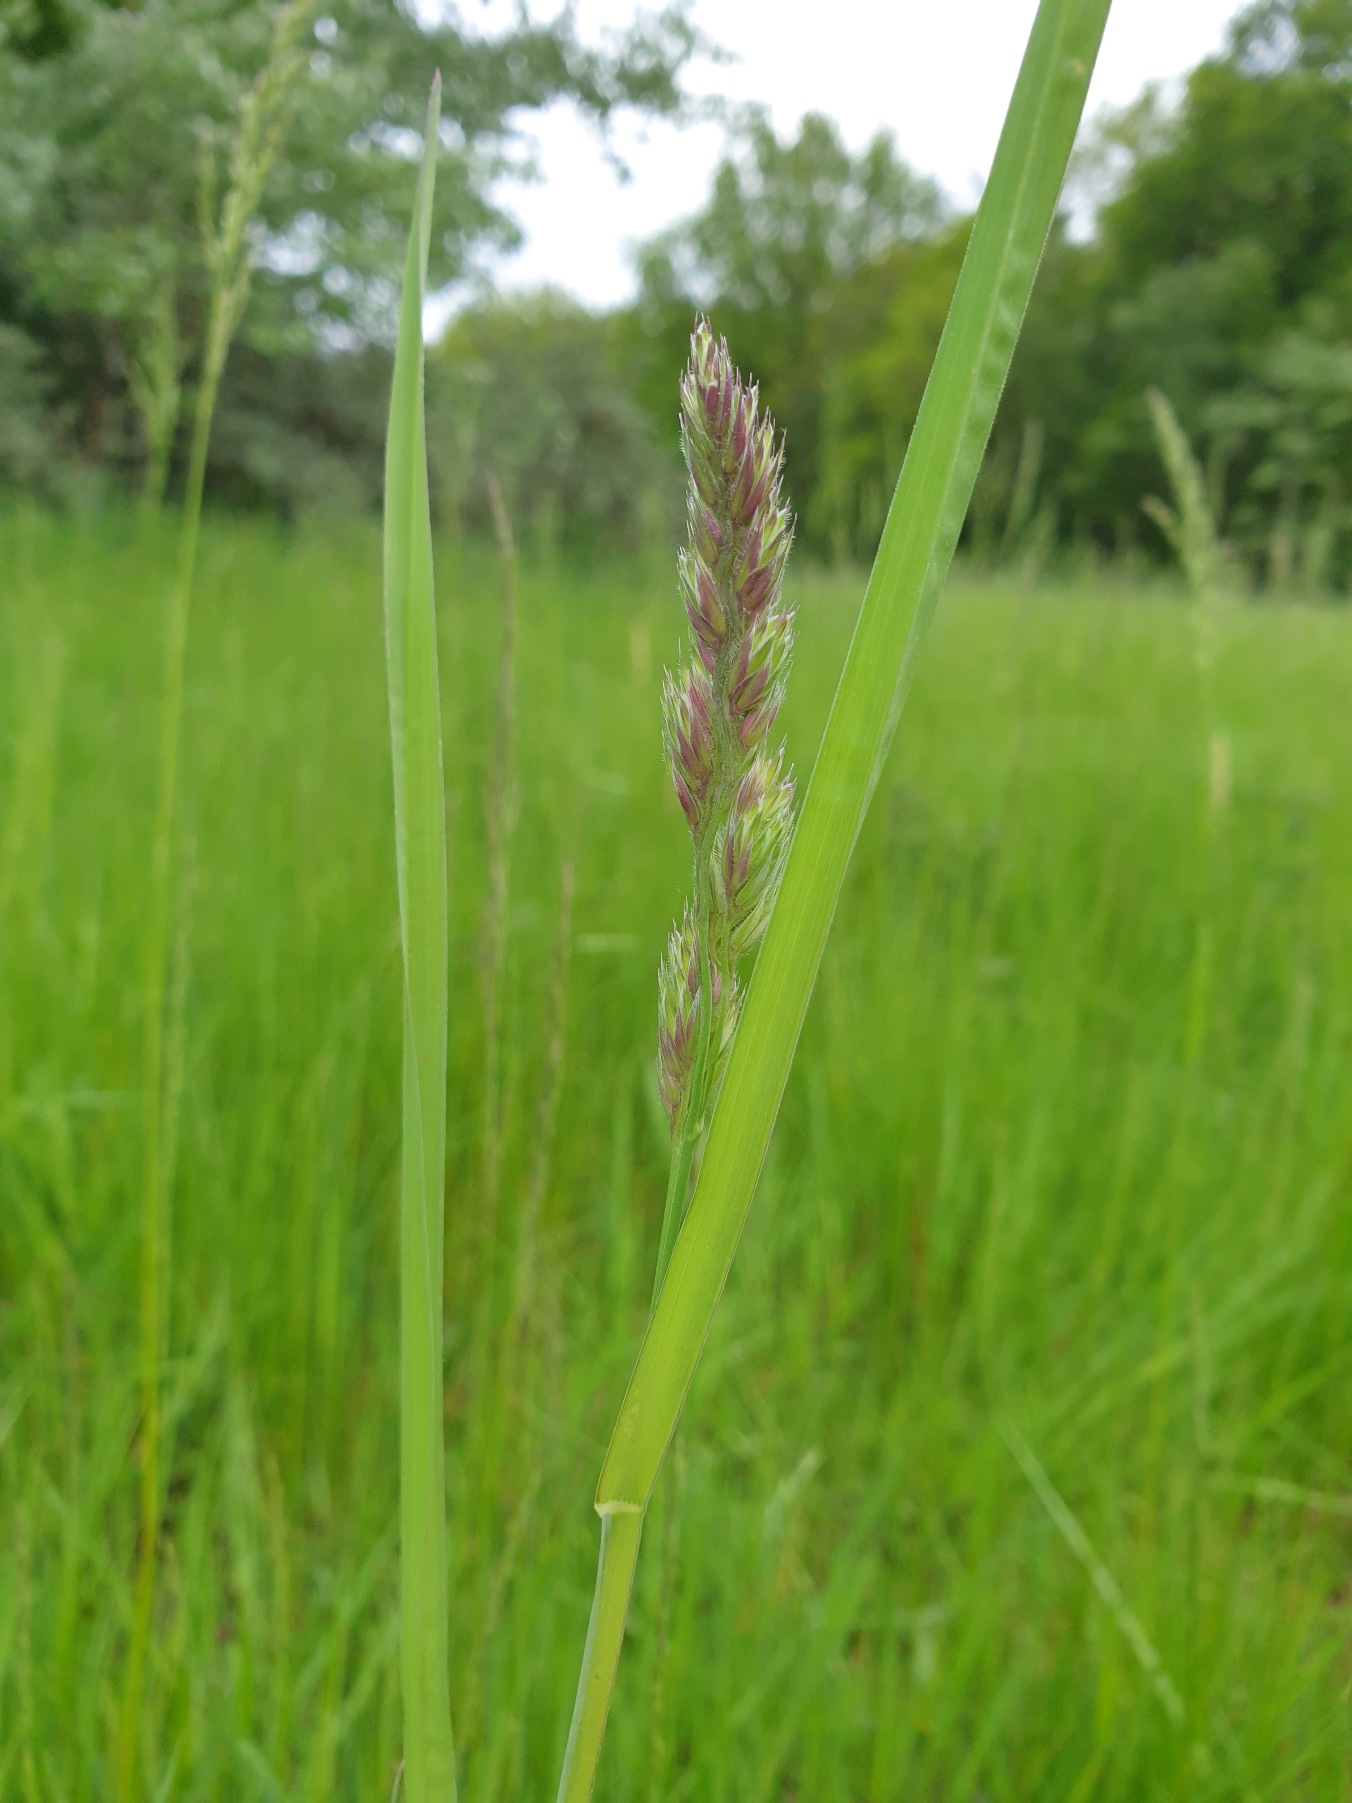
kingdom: Plantae
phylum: Tracheophyta
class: Liliopsida
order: Poales
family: Poaceae
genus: Dactylis
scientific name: Dactylis glomerata
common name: Almindelig hundegræs
